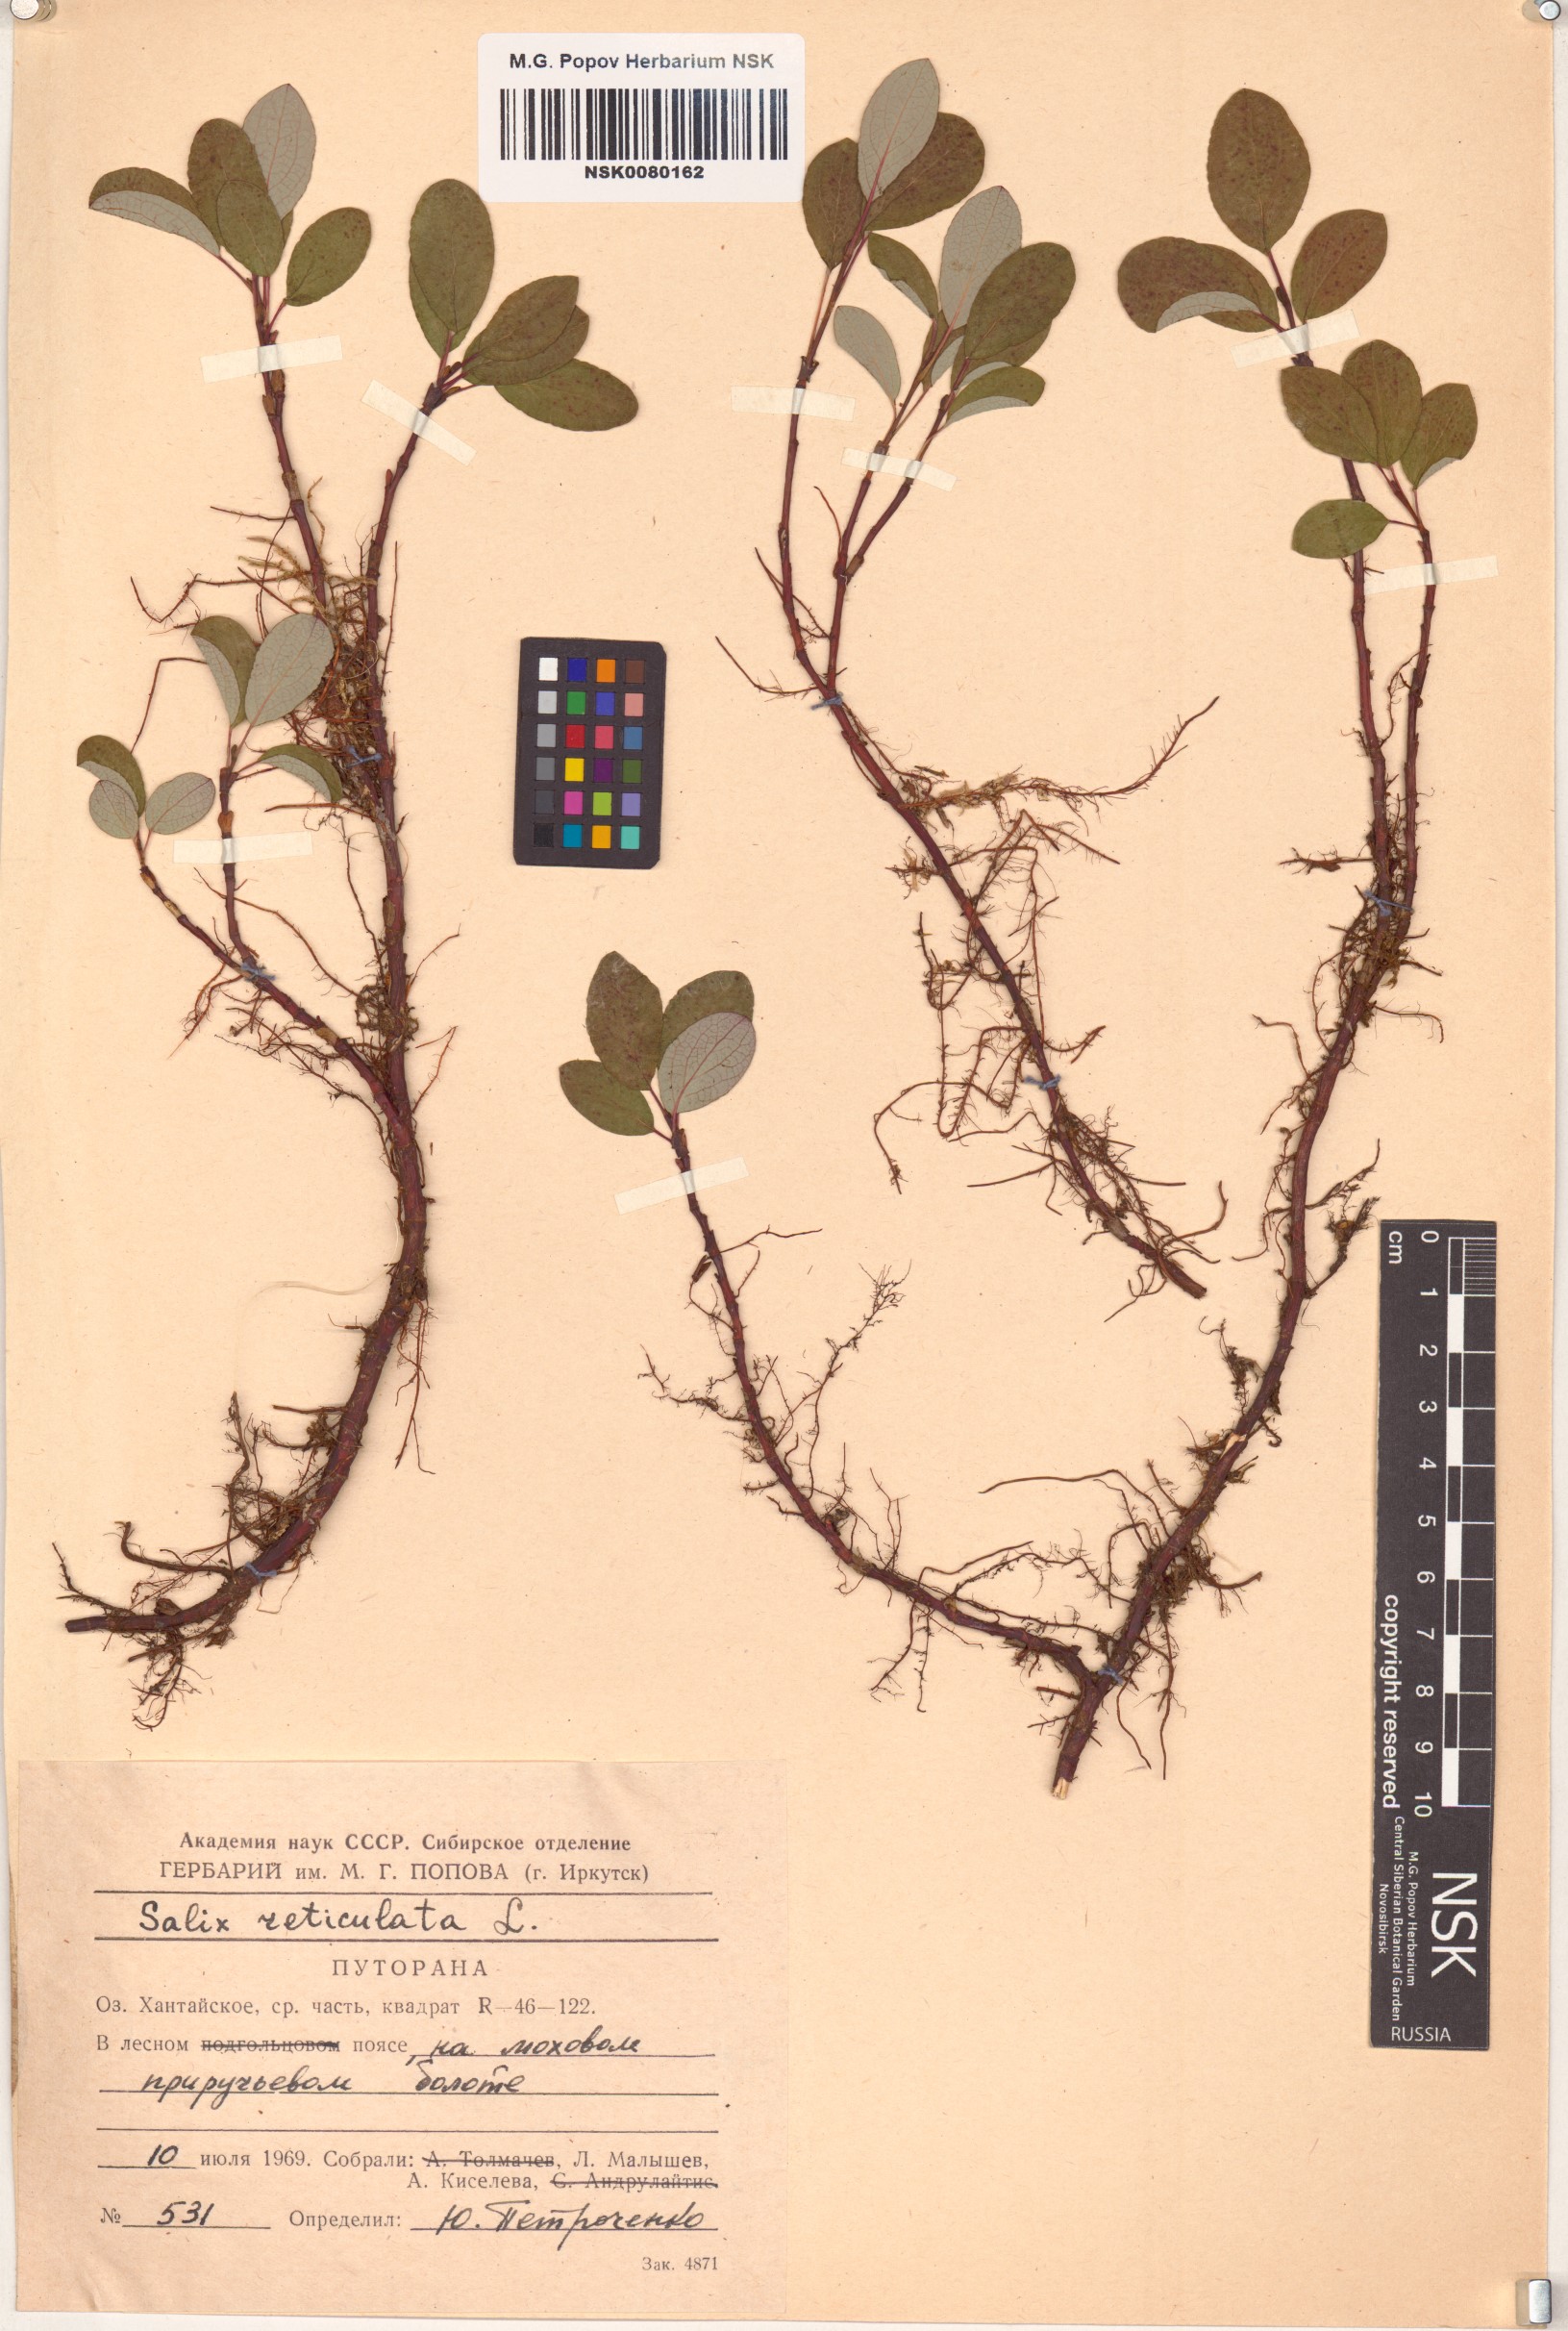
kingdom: Plantae
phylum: Tracheophyta
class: Magnoliopsida
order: Malpighiales
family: Salicaceae
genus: Salix
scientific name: Salix reticulata
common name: Net-leaved willow
